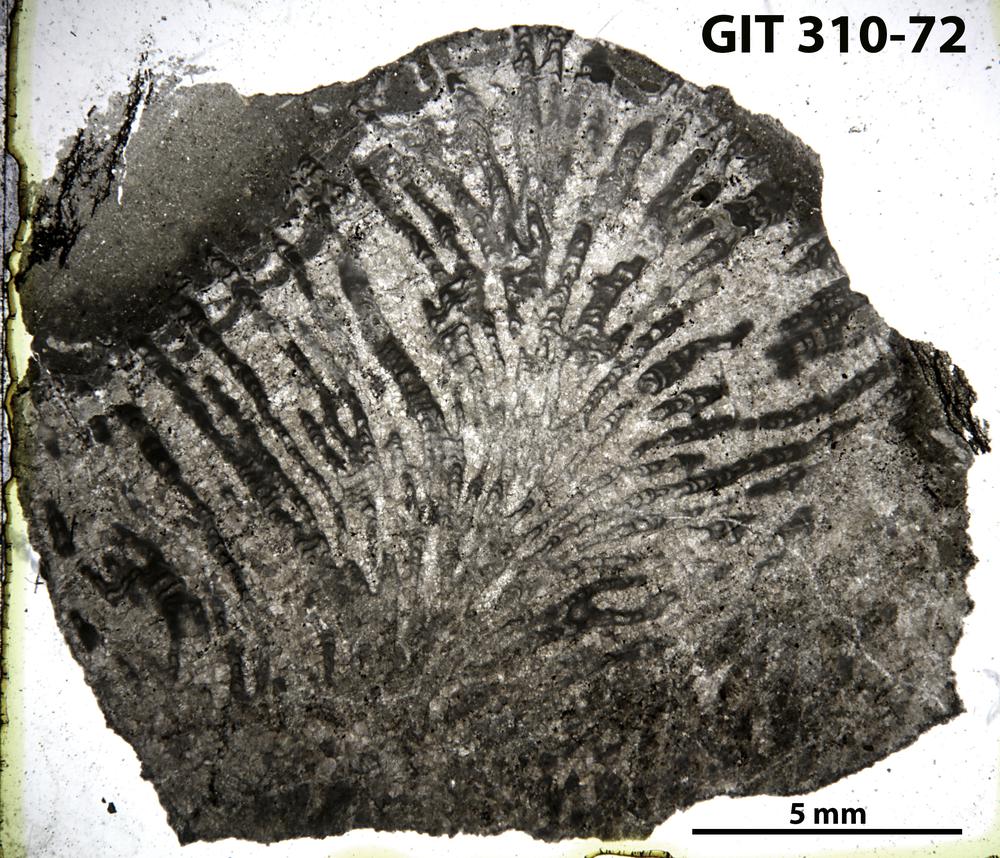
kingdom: Animalia
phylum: Porifera
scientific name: Porifera
